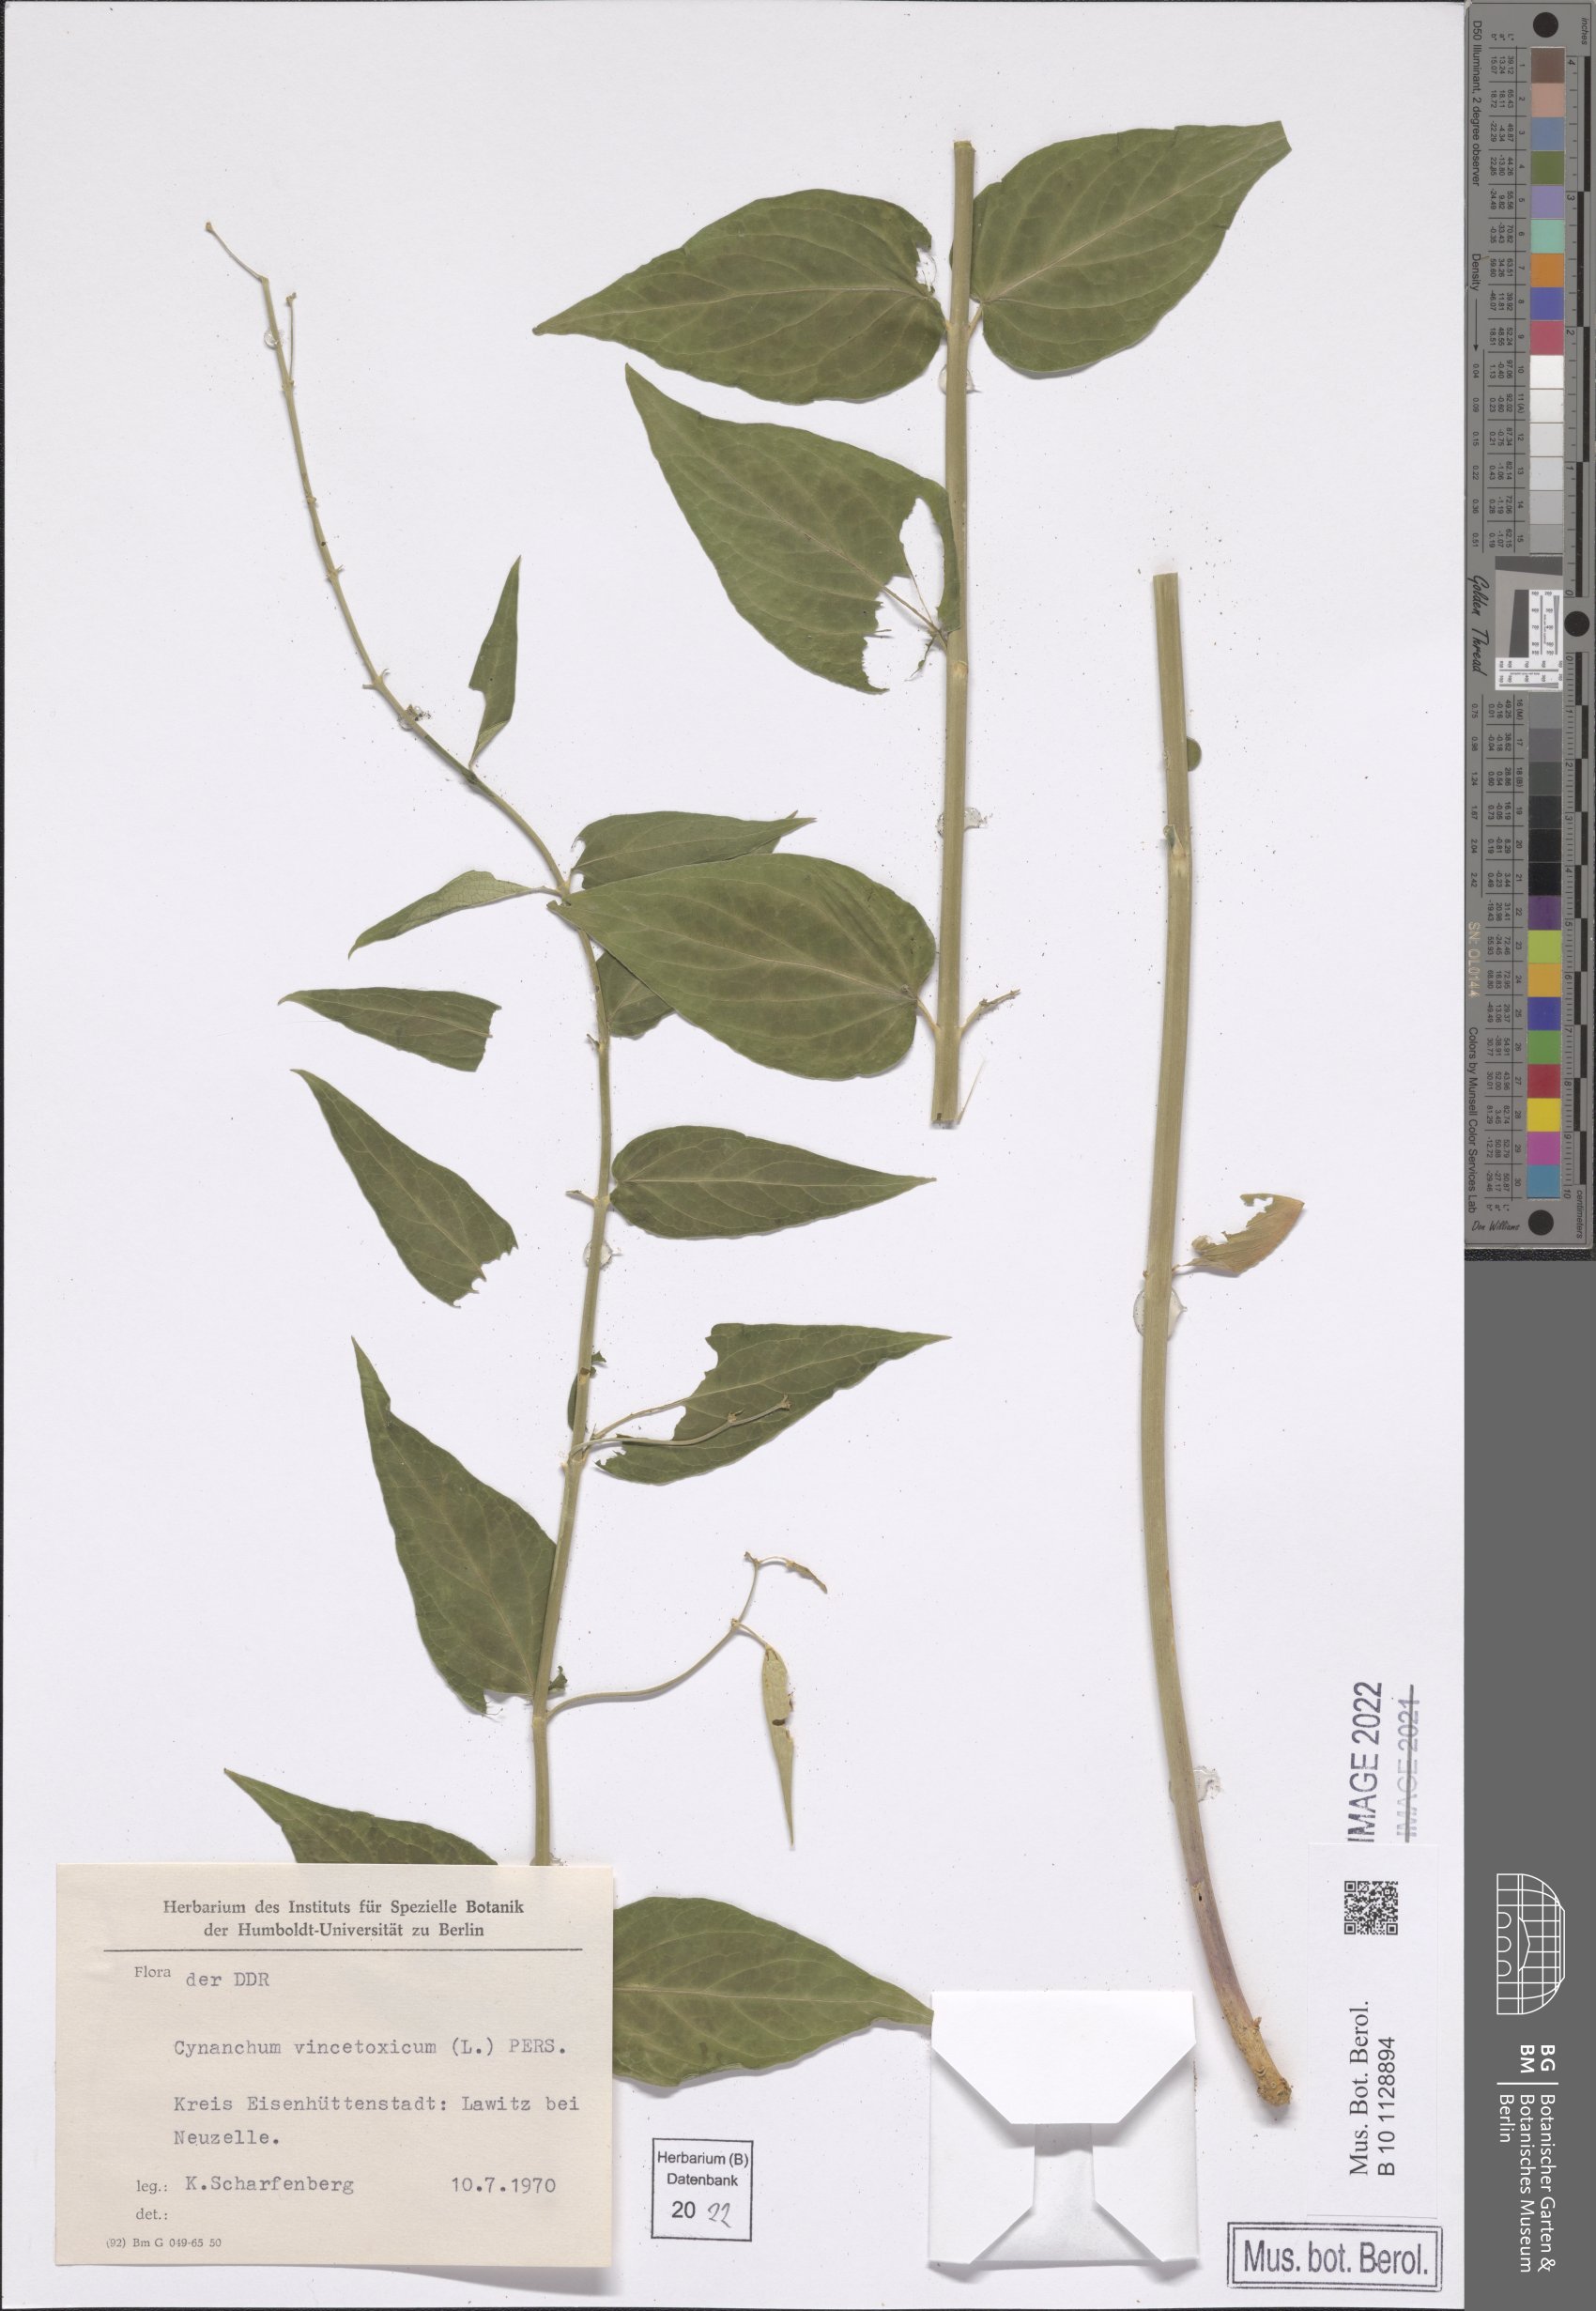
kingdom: Plantae
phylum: Tracheophyta
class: Magnoliopsida
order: Gentianales
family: Apocynaceae
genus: Vincetoxicum
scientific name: Vincetoxicum hirundinaria
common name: White swallowwort
